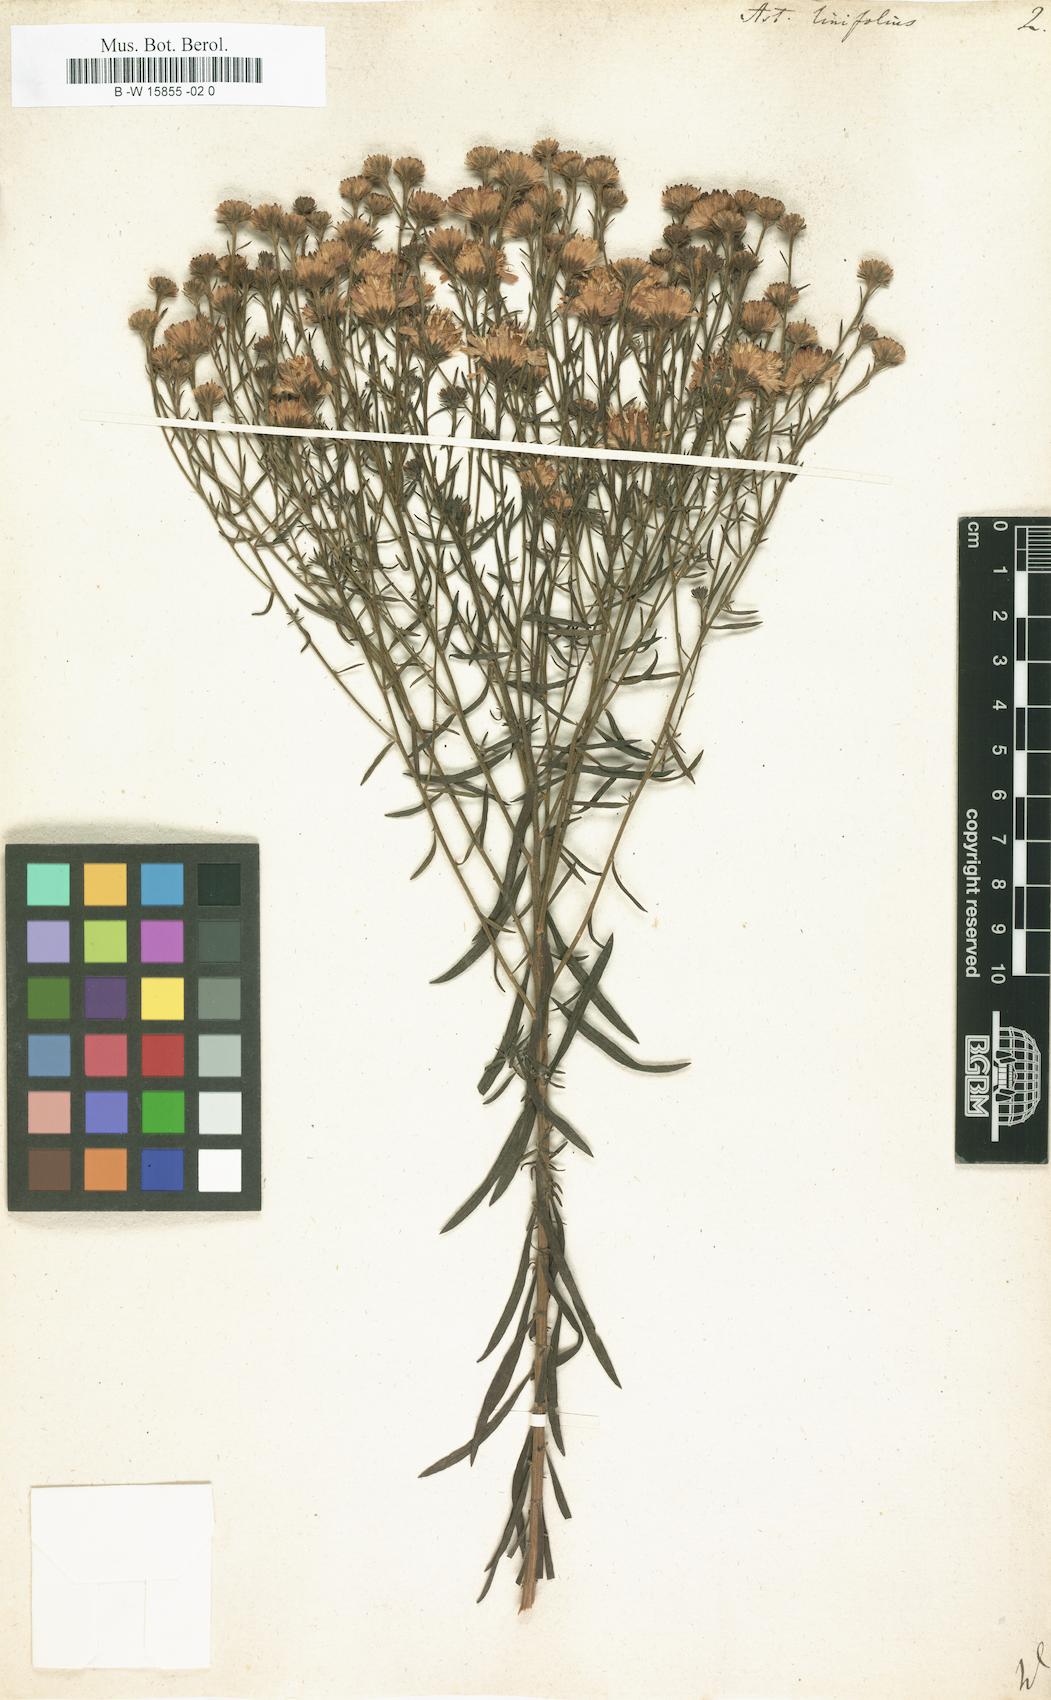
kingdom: Plantae
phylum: Tracheophyta
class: Magnoliopsida
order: Asterales
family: Asteraceae
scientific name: Asteraceae
